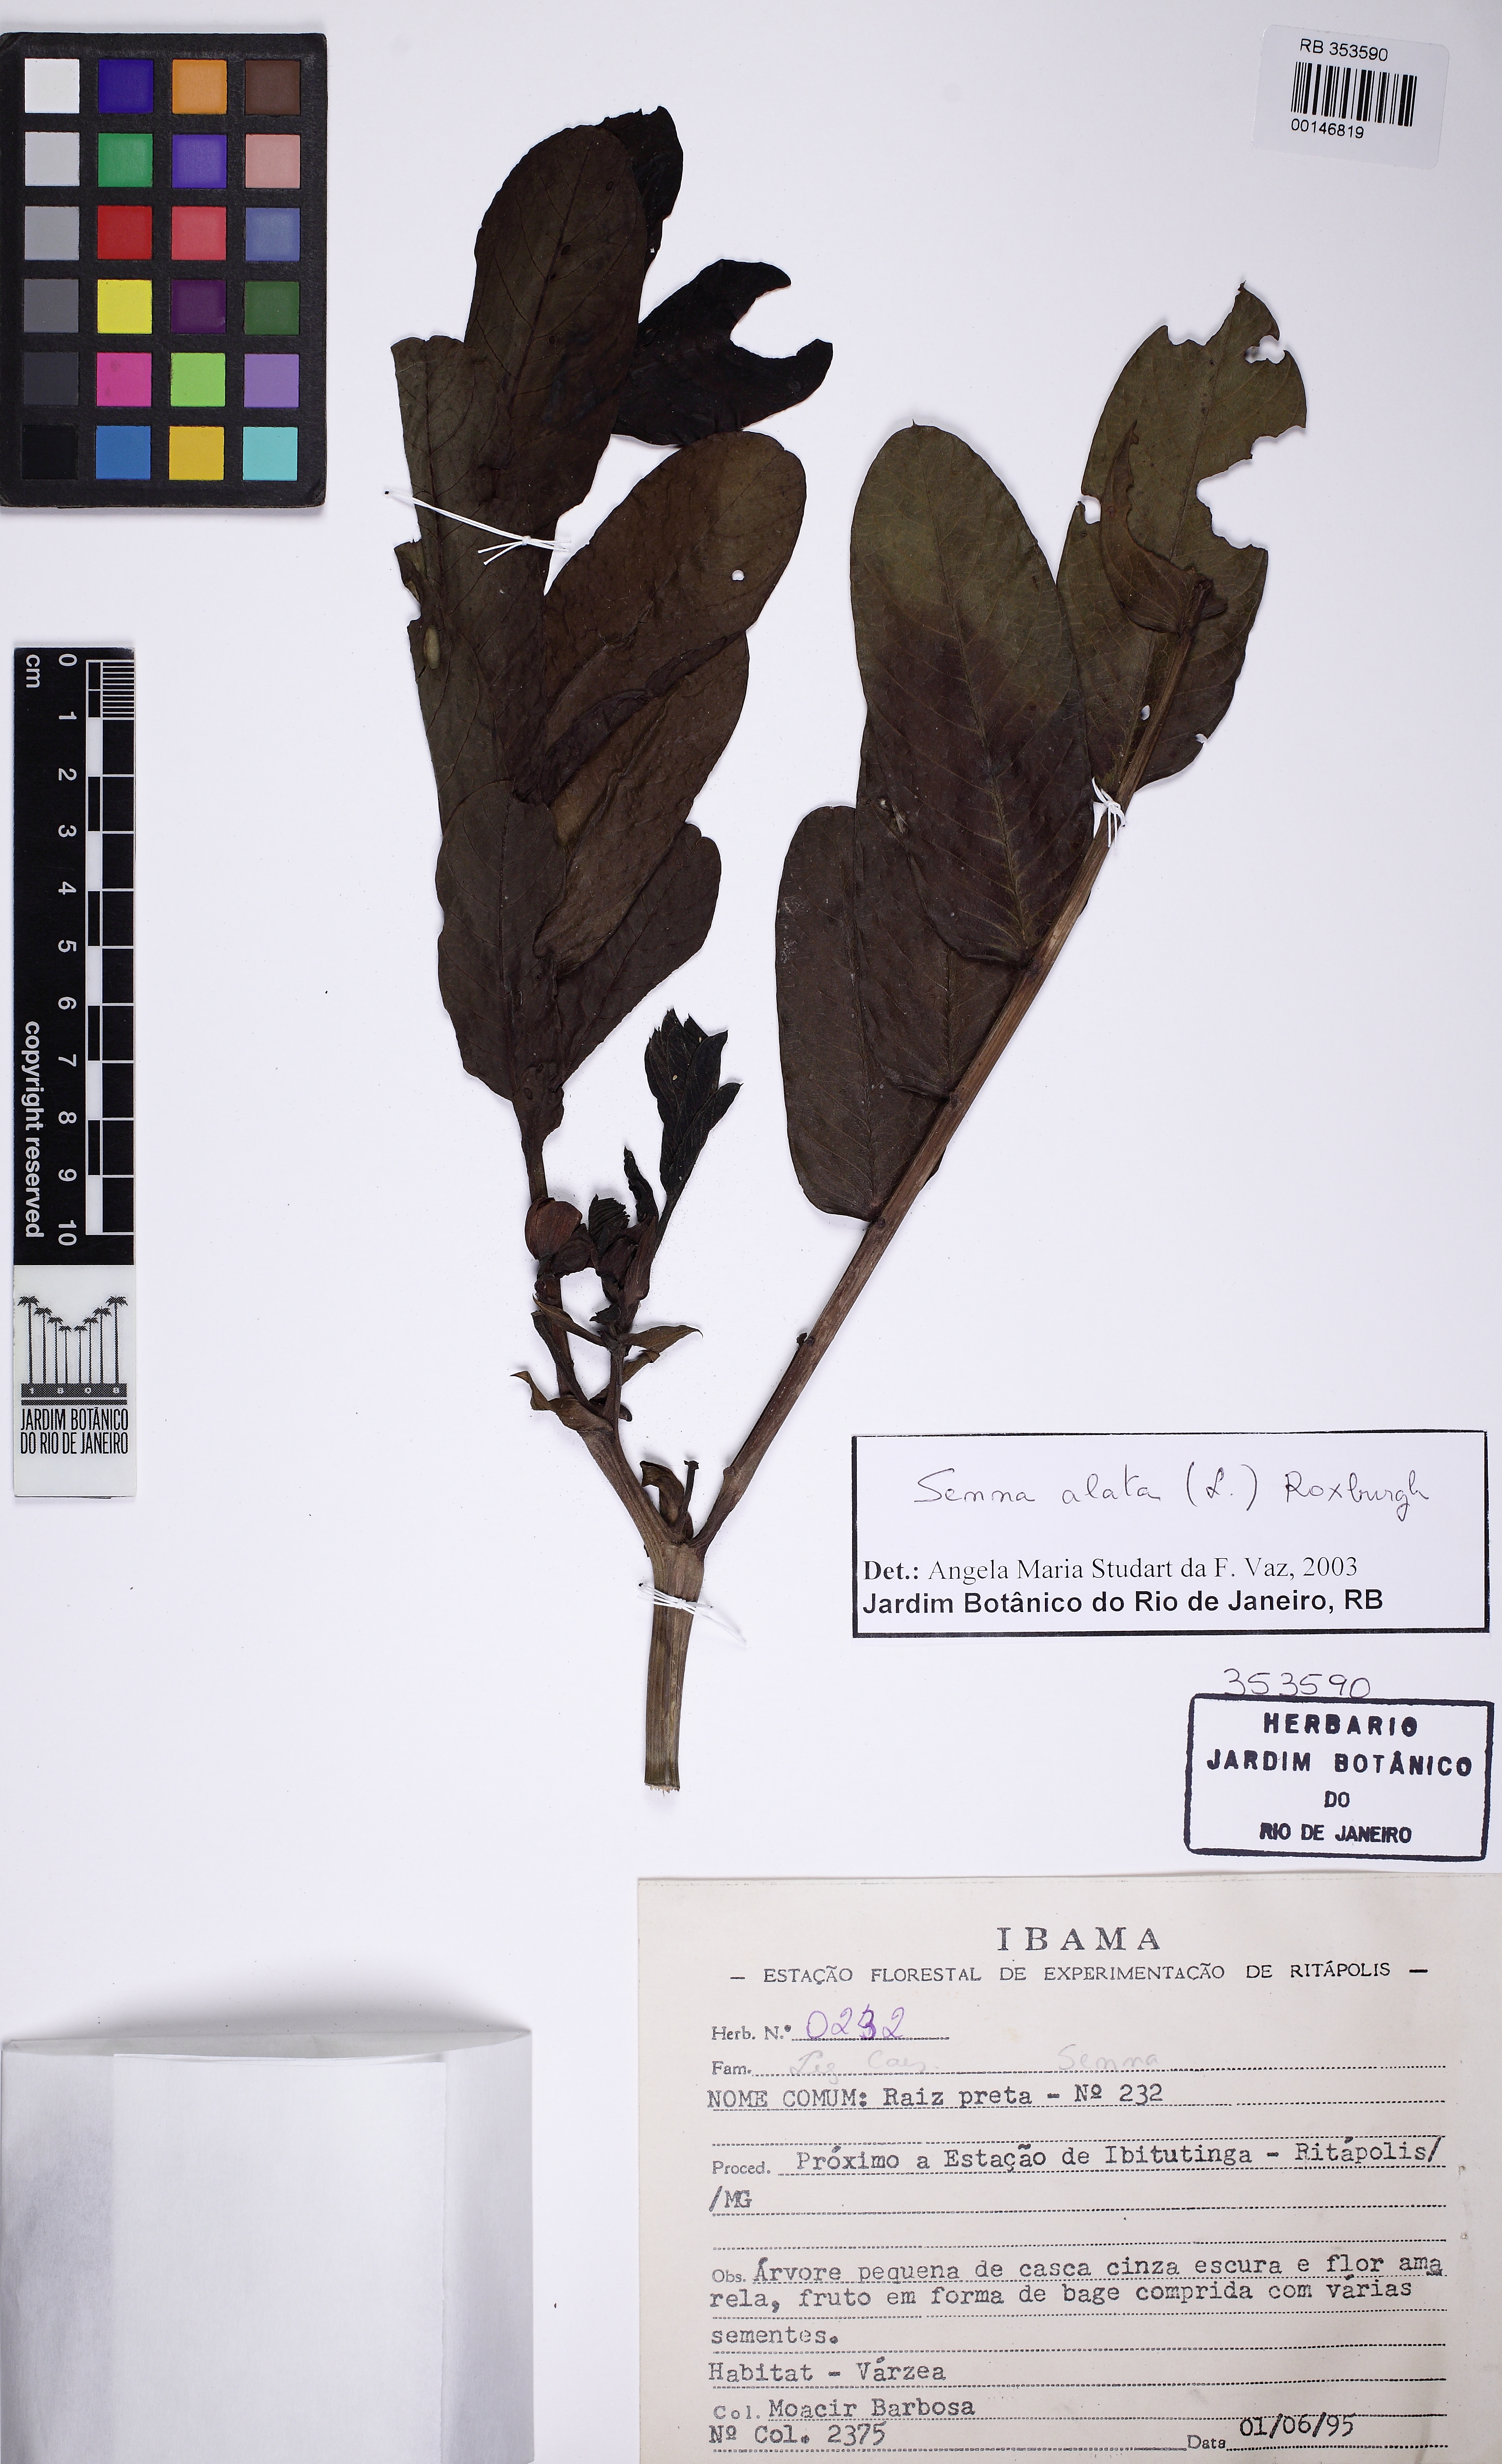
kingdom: Plantae
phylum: Tracheophyta
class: Magnoliopsida
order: Fabales
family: Fabaceae
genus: Senna
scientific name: Senna alata
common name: Emperor's candlesticks
